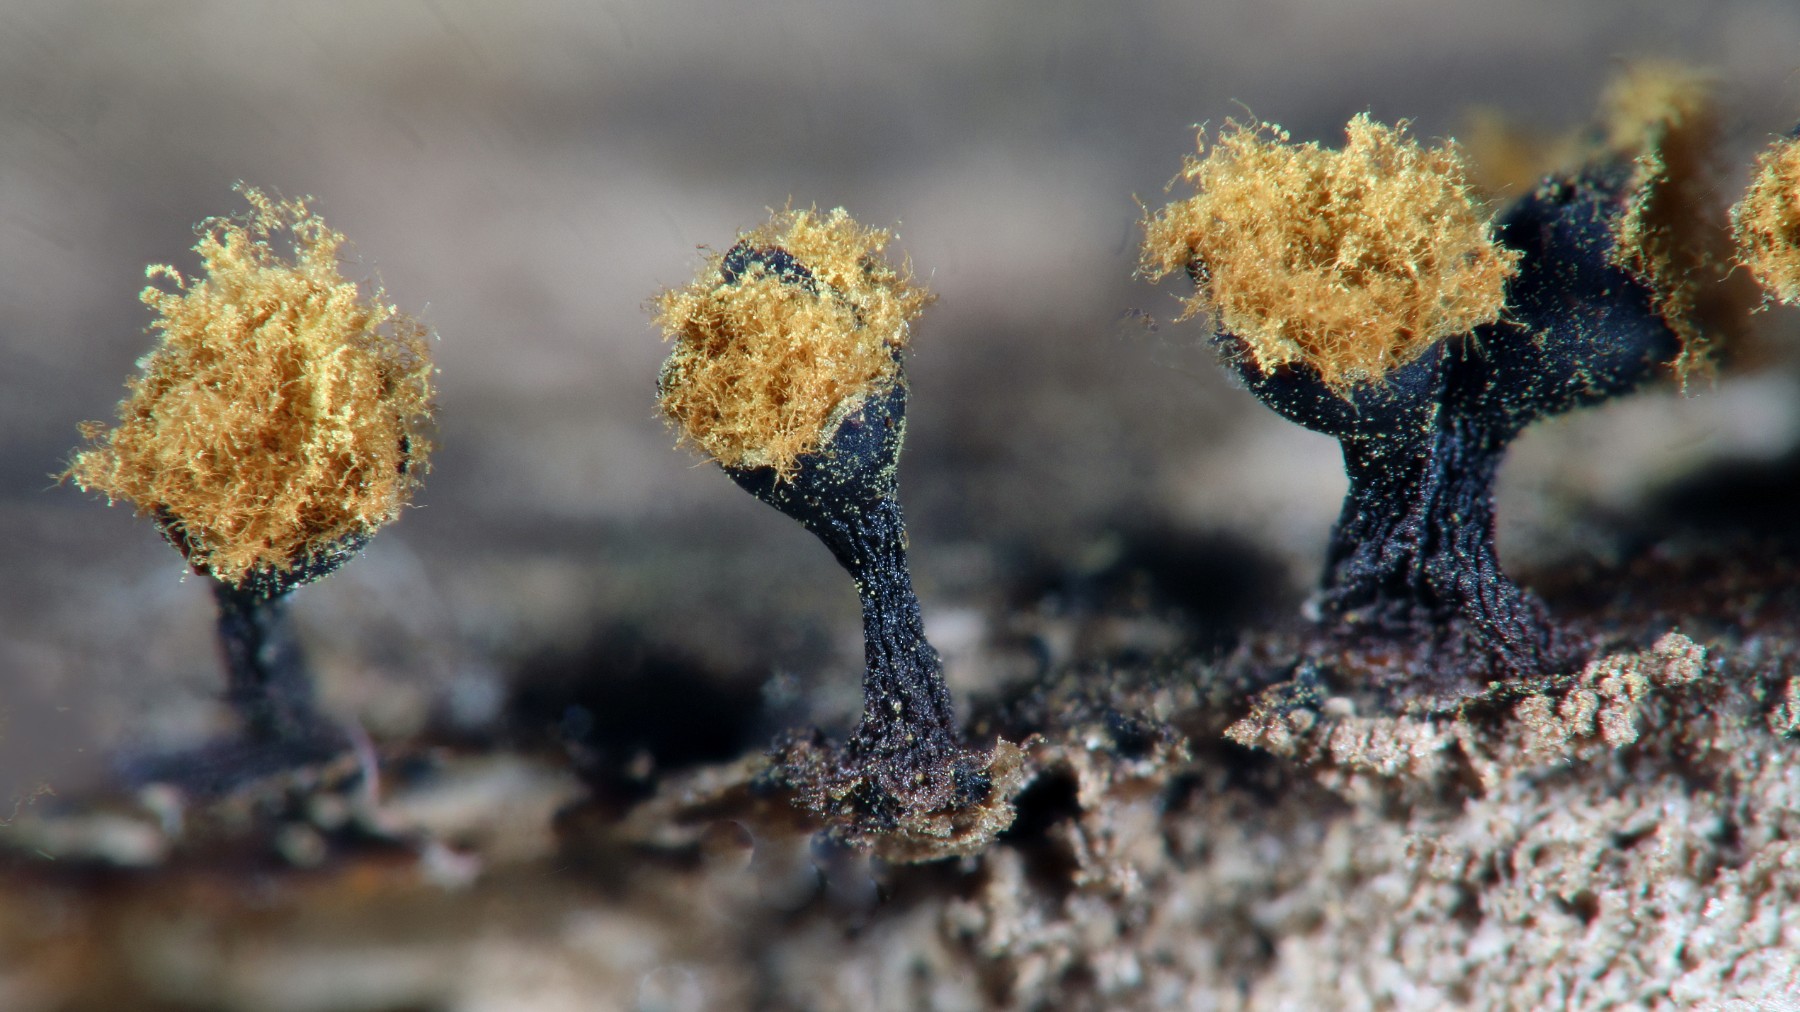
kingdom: Protozoa
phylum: Mycetozoa
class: Myxomycetes
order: Trichiales
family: Trichiaceae
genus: Trichia
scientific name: Trichia botrytis
